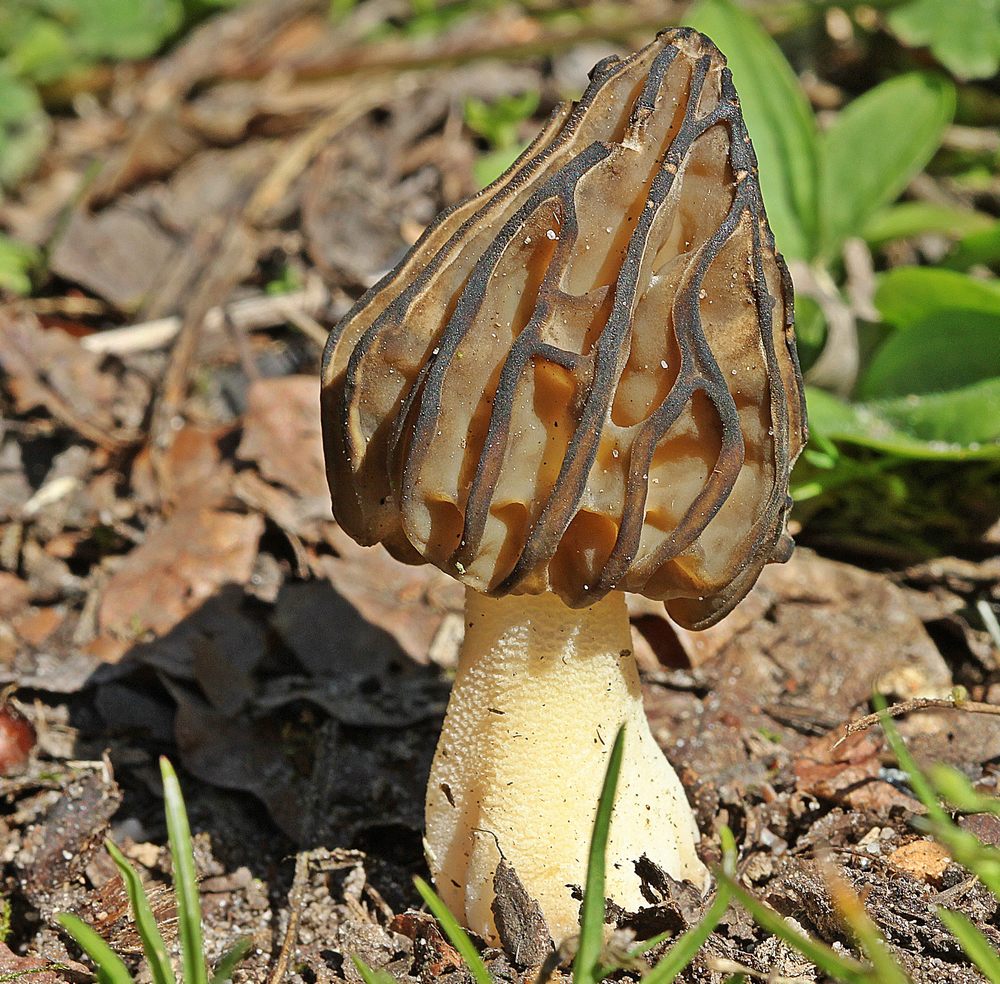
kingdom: Fungi
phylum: Ascomycota
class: Pezizomycetes
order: Pezizales
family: Morchellaceae
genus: Morchella
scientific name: Morchella semilibera
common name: hætte-morkel
